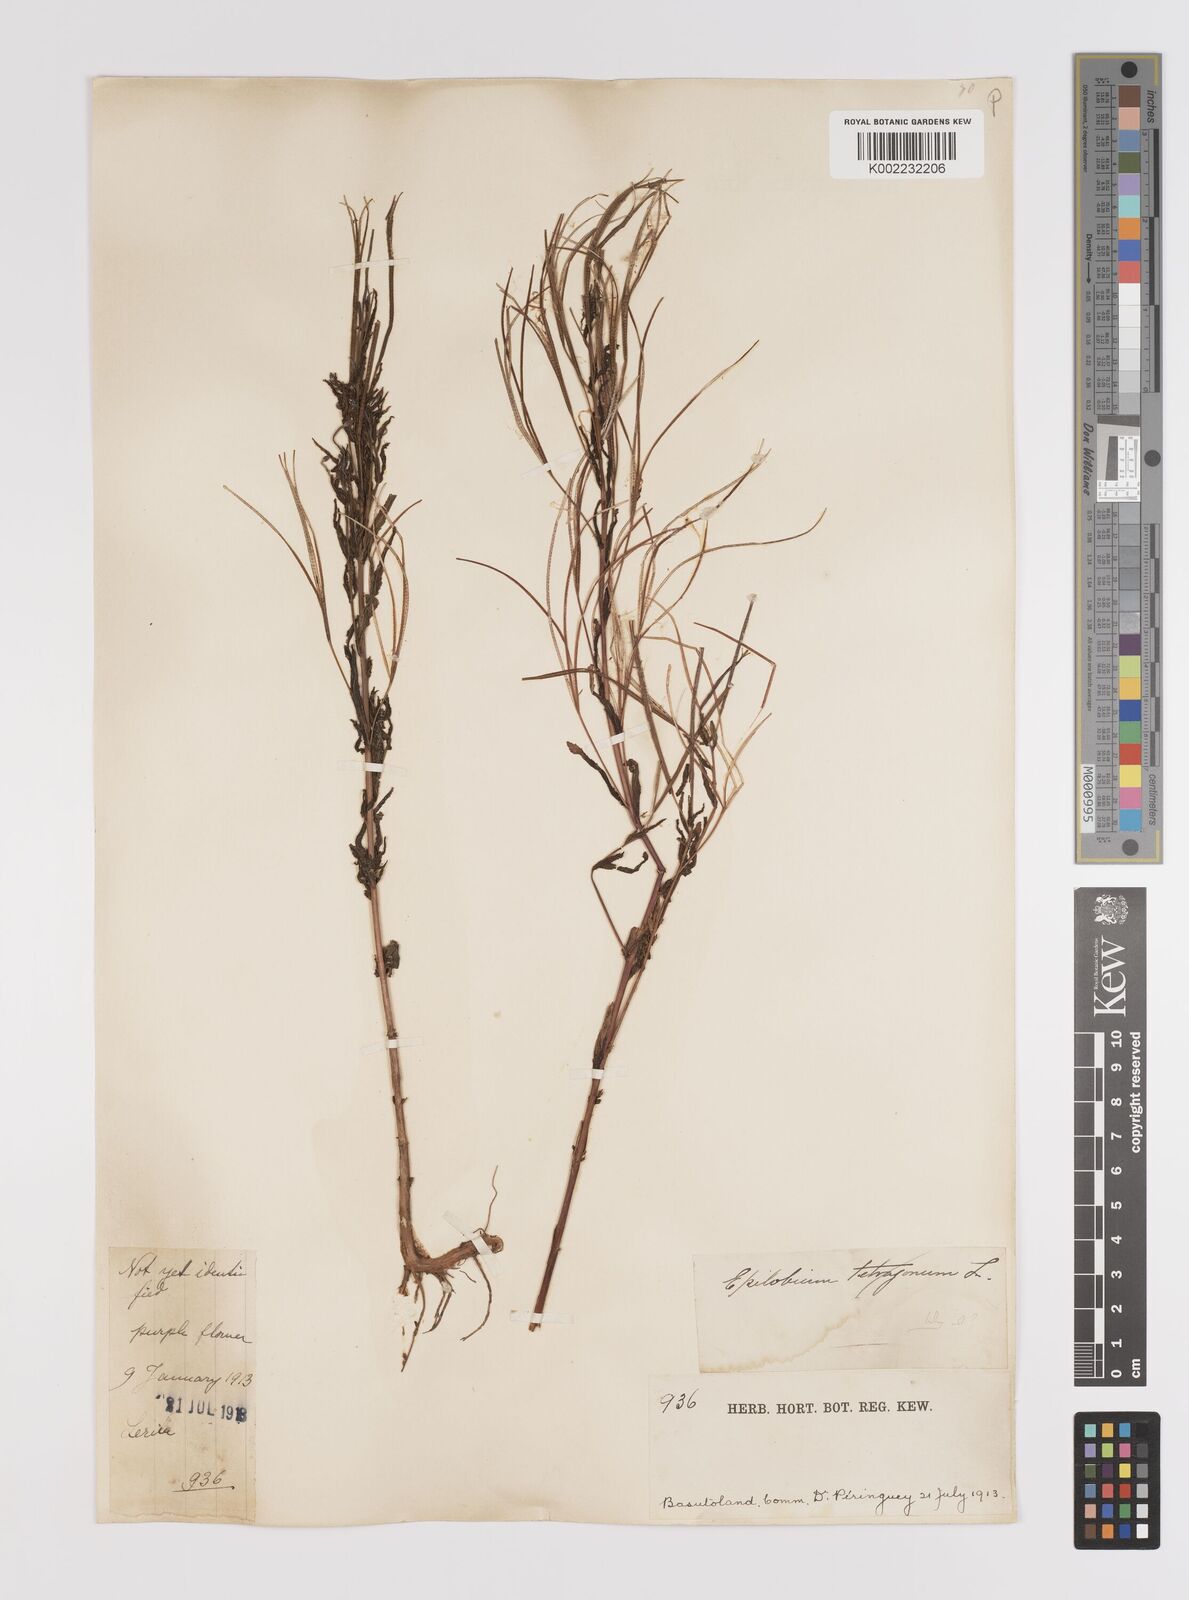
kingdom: Plantae
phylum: Tracheophyta
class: Magnoliopsida
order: Myrtales
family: Onagraceae
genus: Epilobium
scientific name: Epilobium tetragonum
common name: Square-stemmed willowherb
